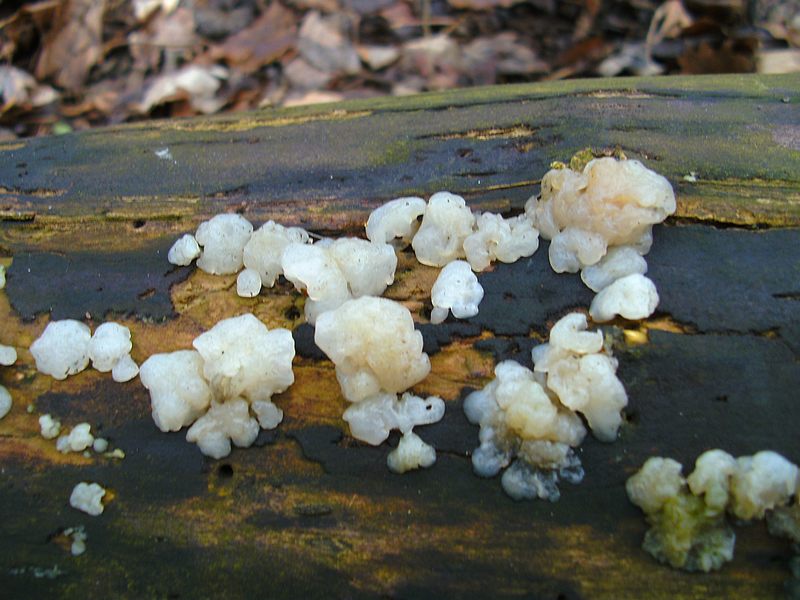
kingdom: Fungi
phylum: Basidiomycota
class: Agaricomycetes
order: Auriculariales
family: Hyaloriaceae
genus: Myxarium
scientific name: Myxarium nucleatum
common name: klar bævretop
